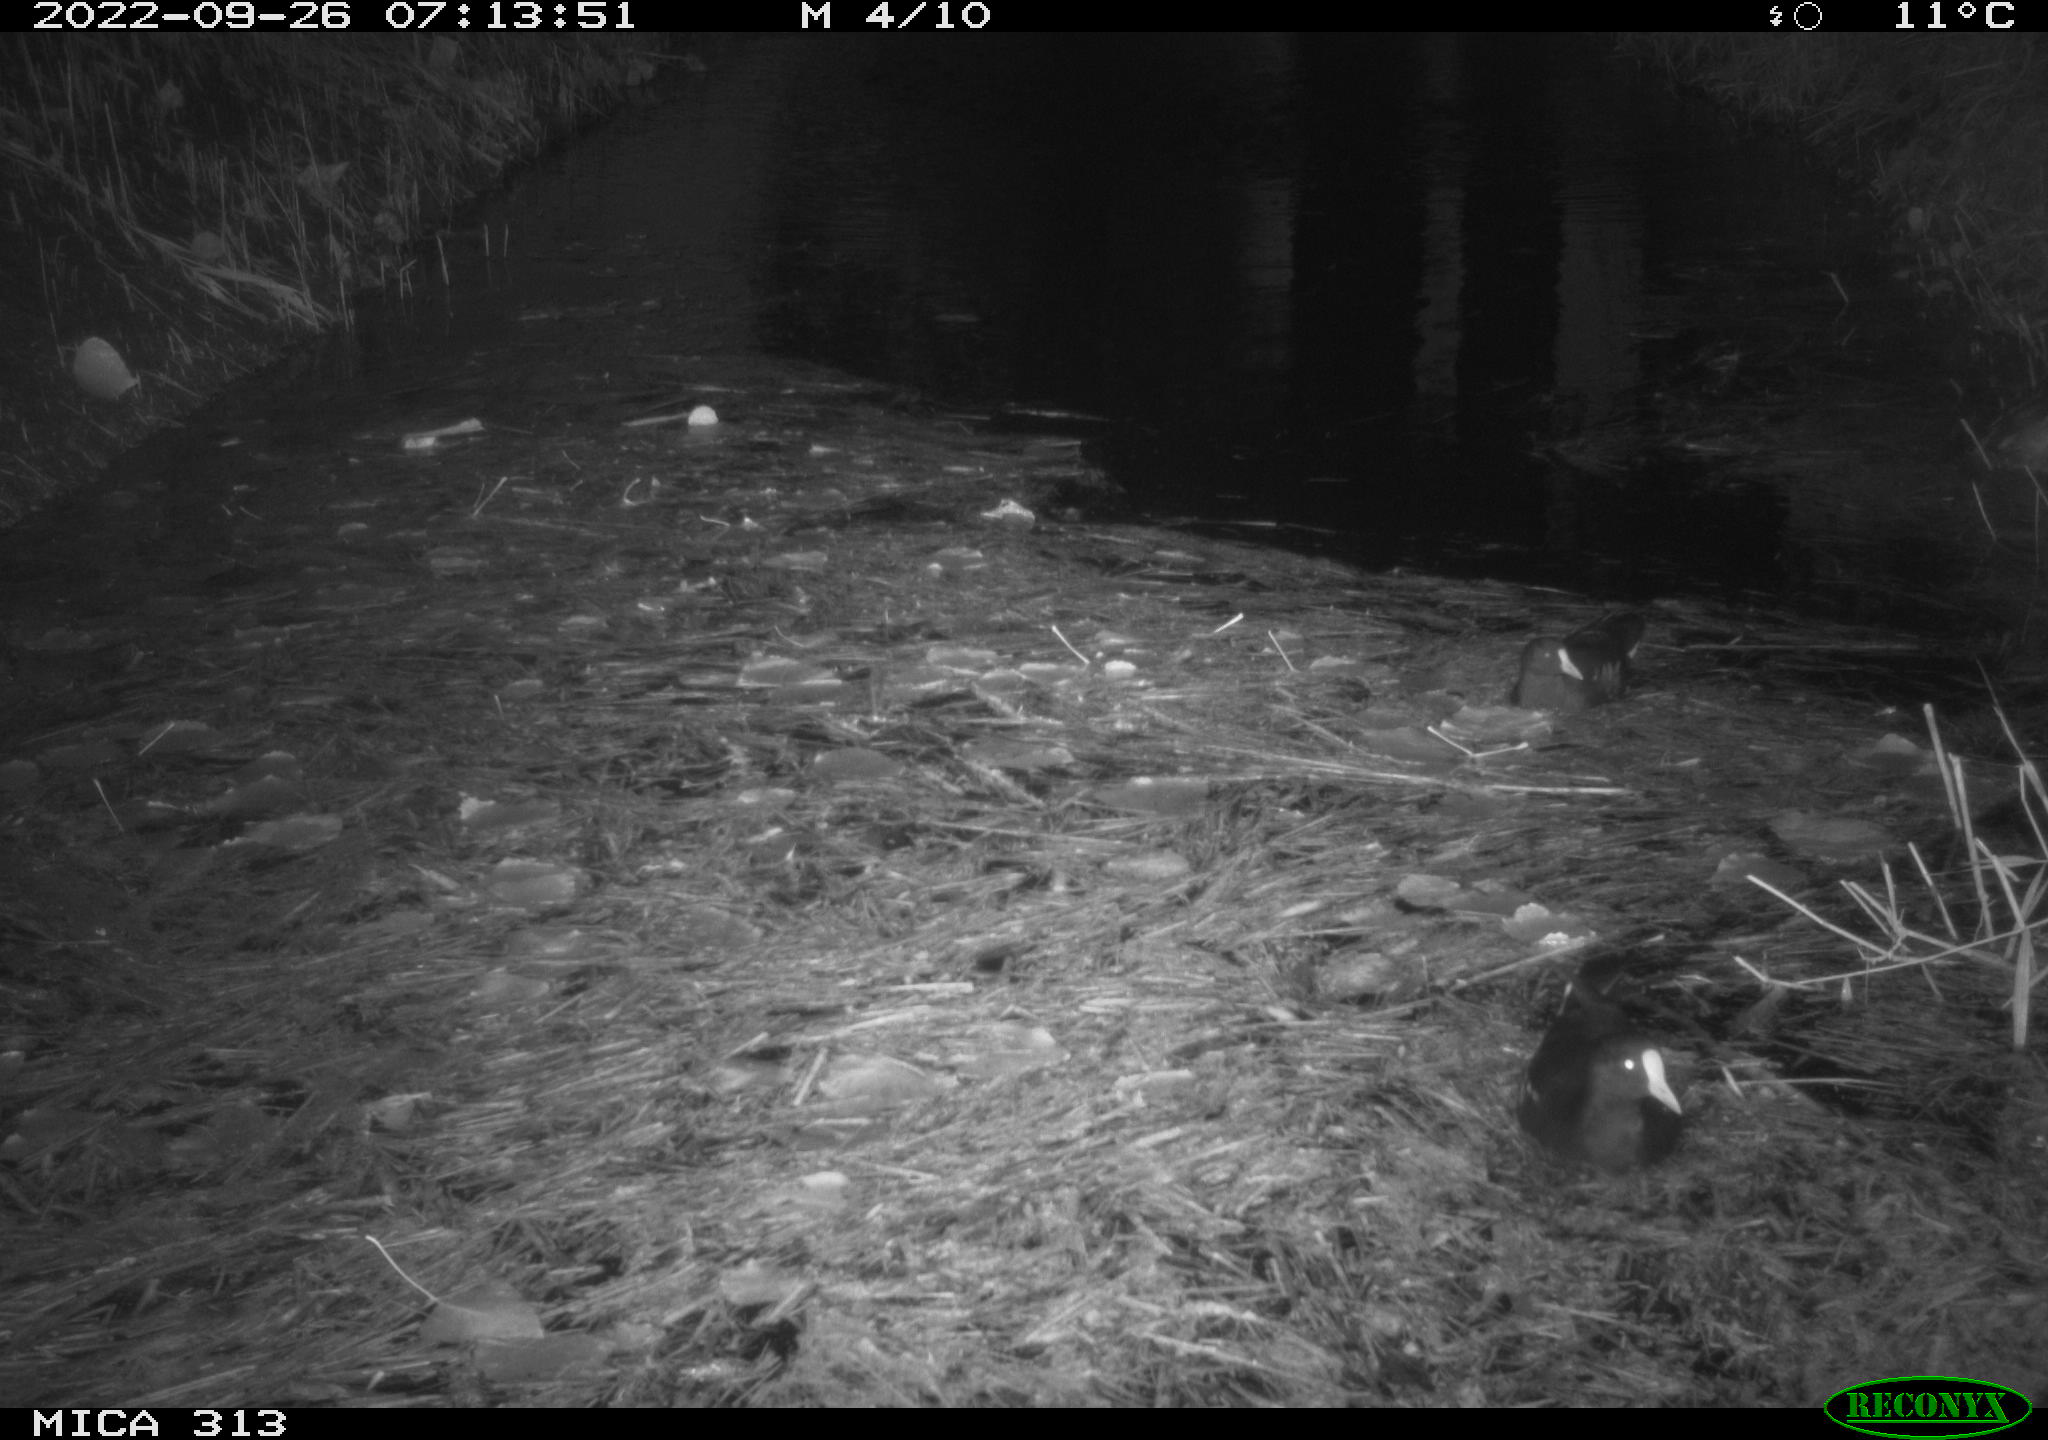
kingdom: Animalia
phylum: Chordata
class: Aves
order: Gruiformes
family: Rallidae
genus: Gallinula
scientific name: Gallinula chloropus
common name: Common moorhen
